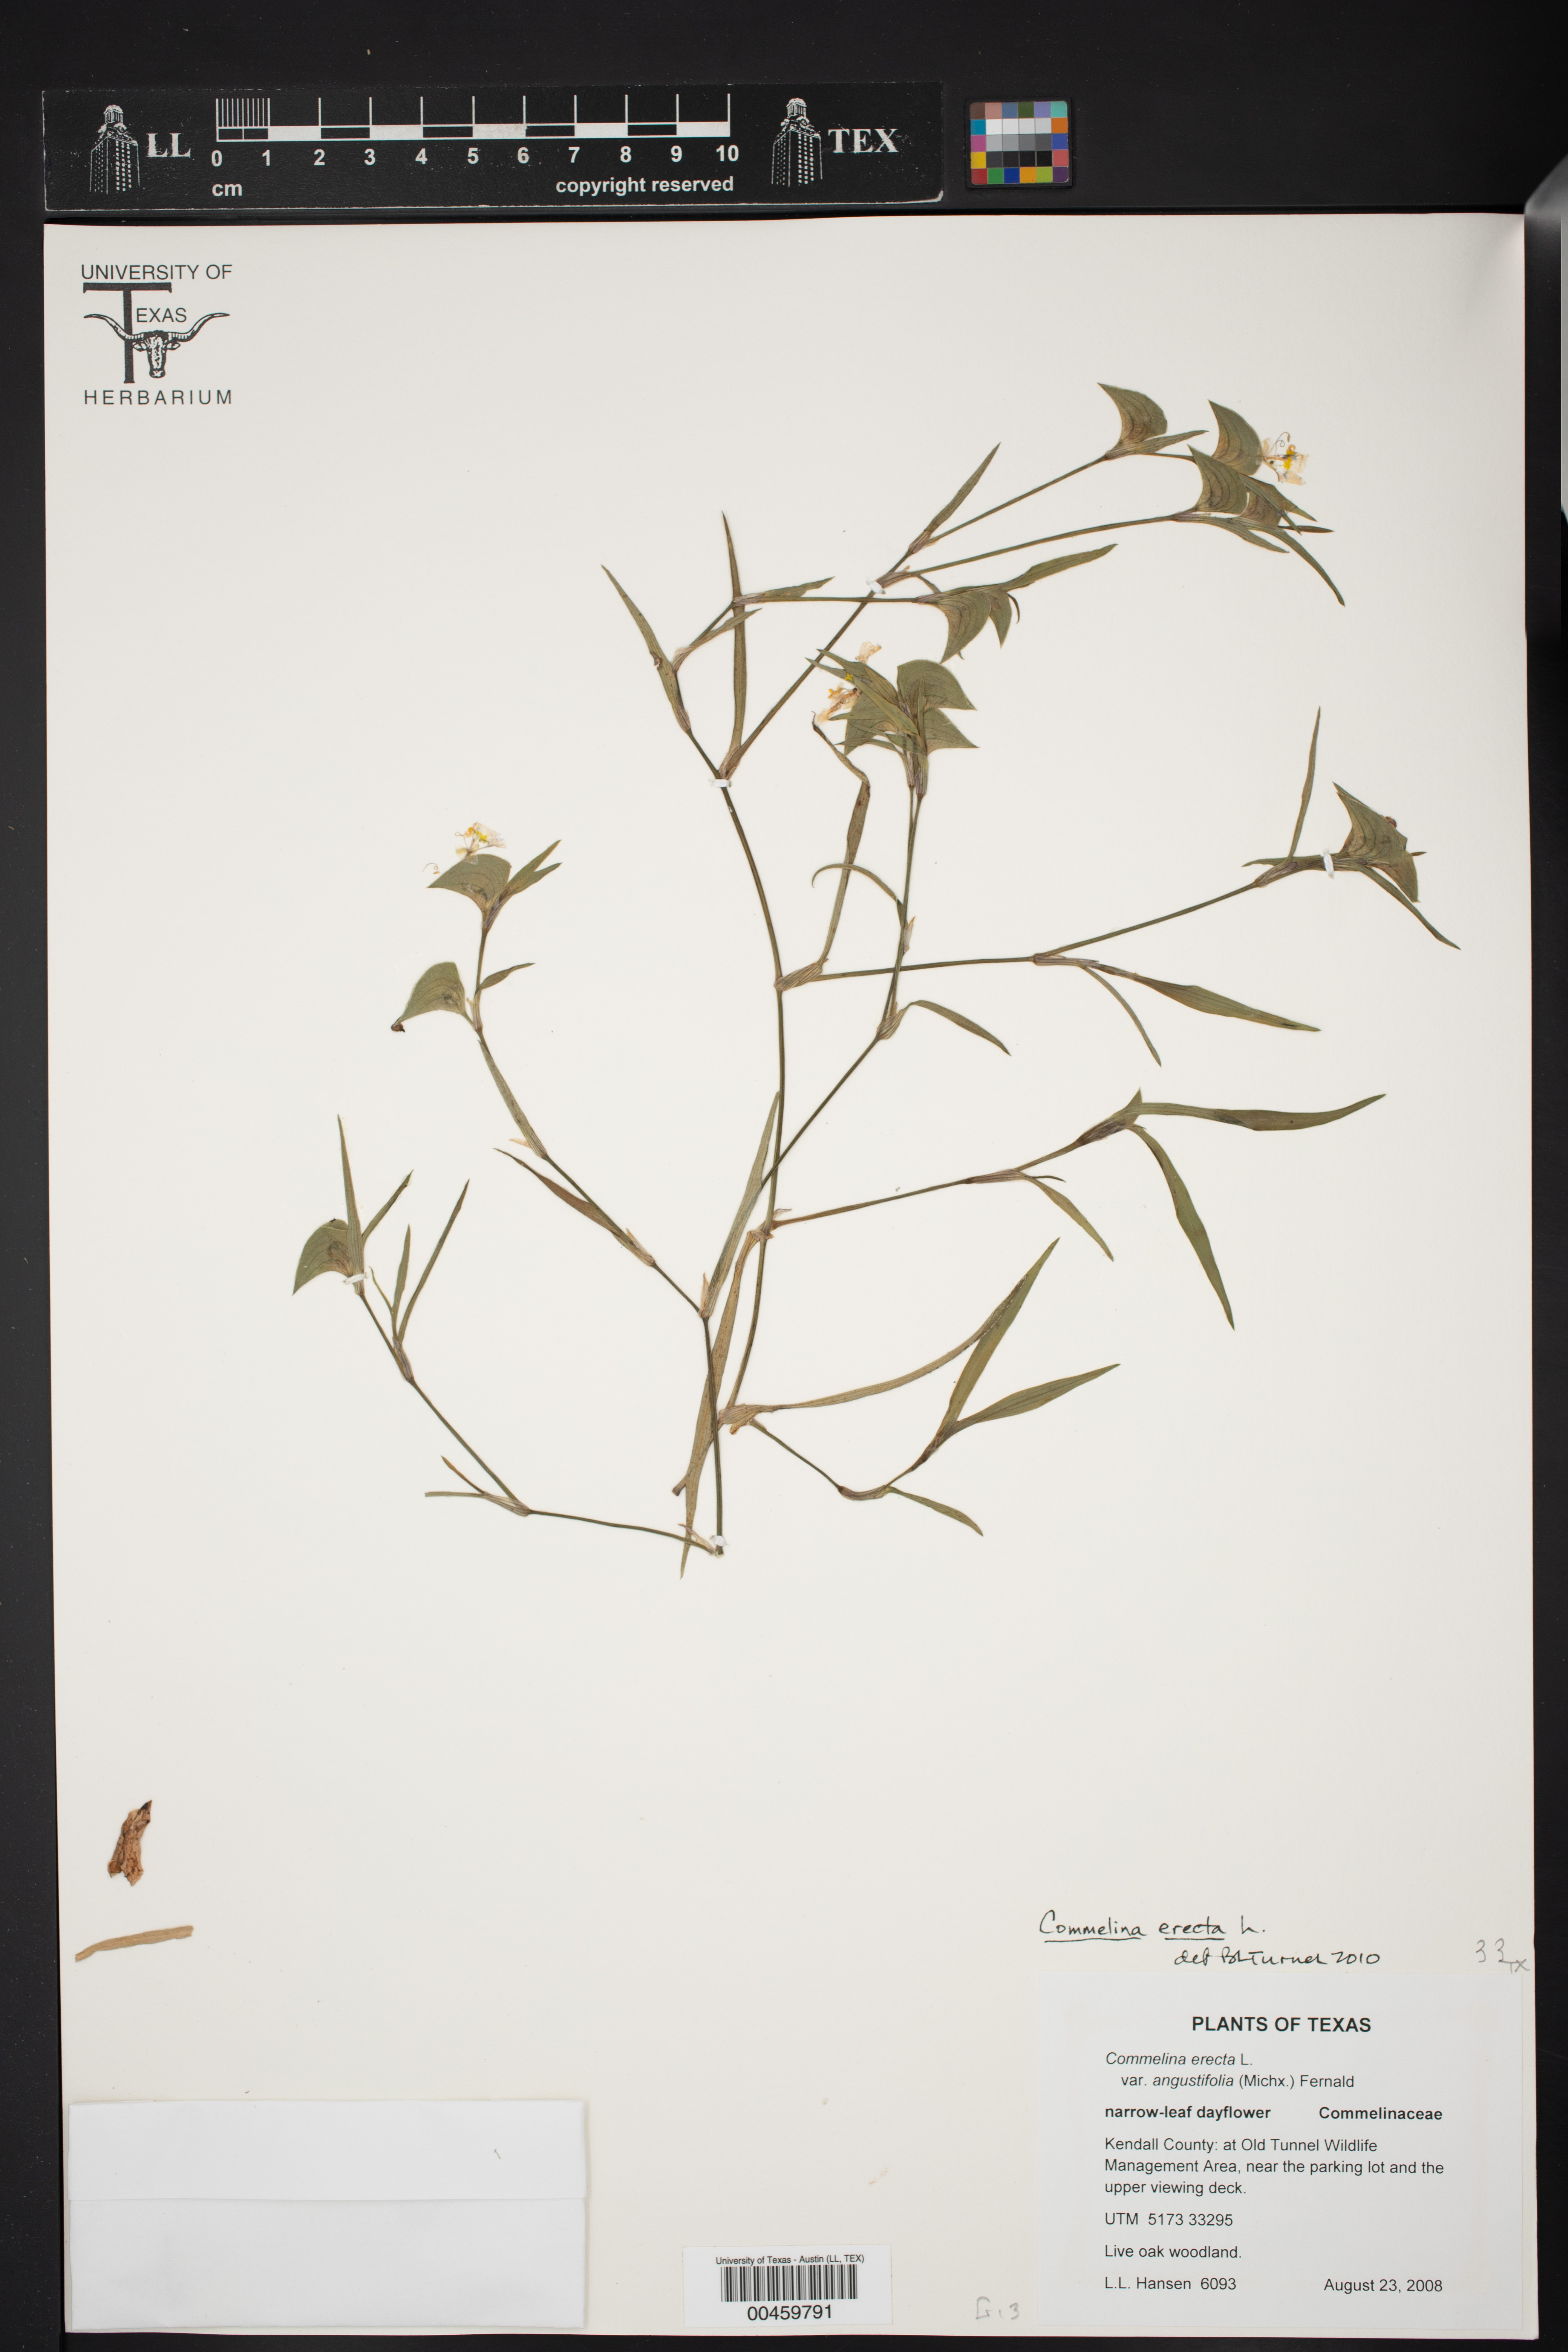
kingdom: Plantae
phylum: Tracheophyta
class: Liliopsida
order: Commelinales
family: Commelinaceae
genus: Commelina
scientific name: Commelina erecta
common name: Blousel blommetjie
